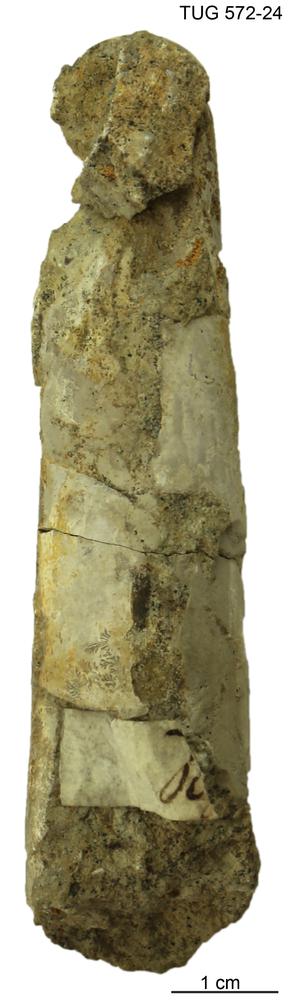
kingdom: Animalia
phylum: Mollusca
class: Cephalopoda
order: Orthocerida
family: Orthoceratidae
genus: Orthoceras
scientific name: Orthoceras regulare
